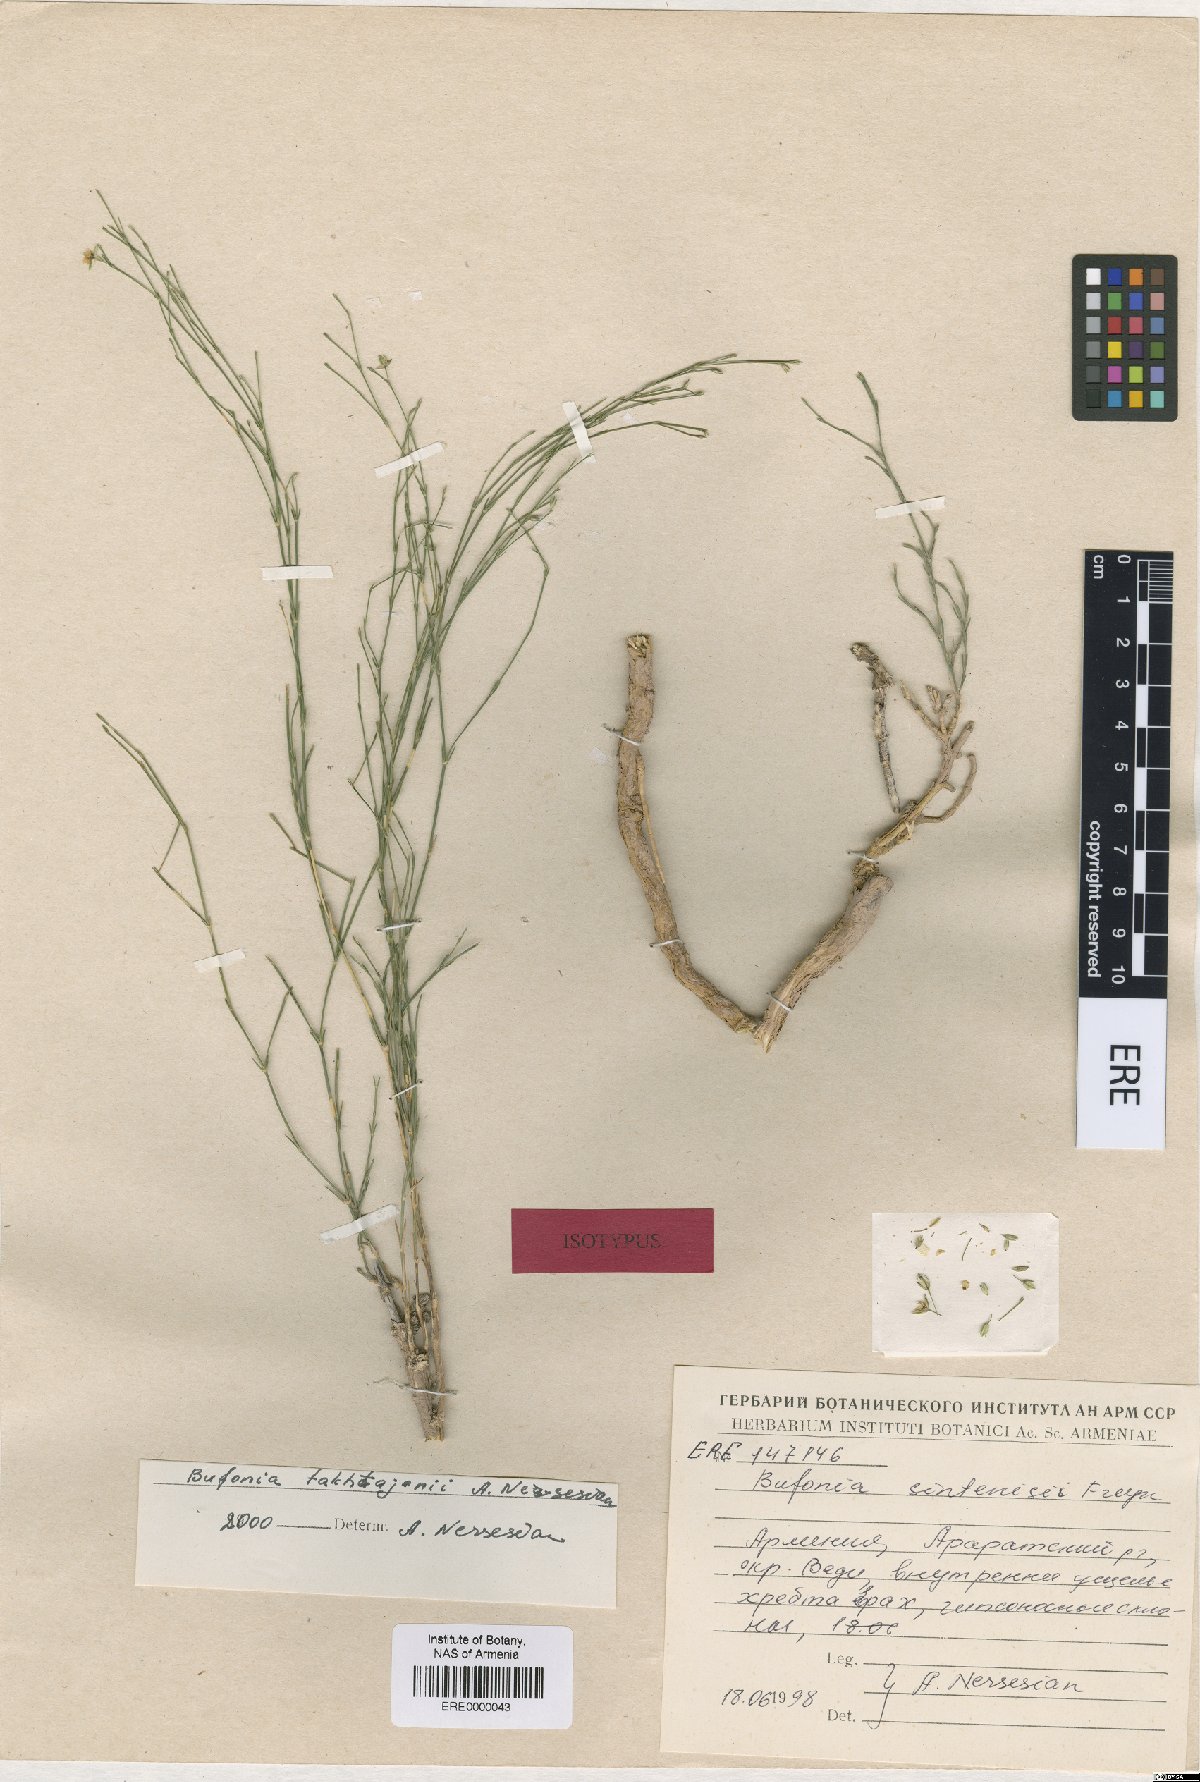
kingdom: Plantae
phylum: Tracheophyta
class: Magnoliopsida
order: Caryophyllales
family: Caryophyllaceae
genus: Bufonia
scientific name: Bufonia takhtajanii
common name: Takhtadjyan's bufonia
